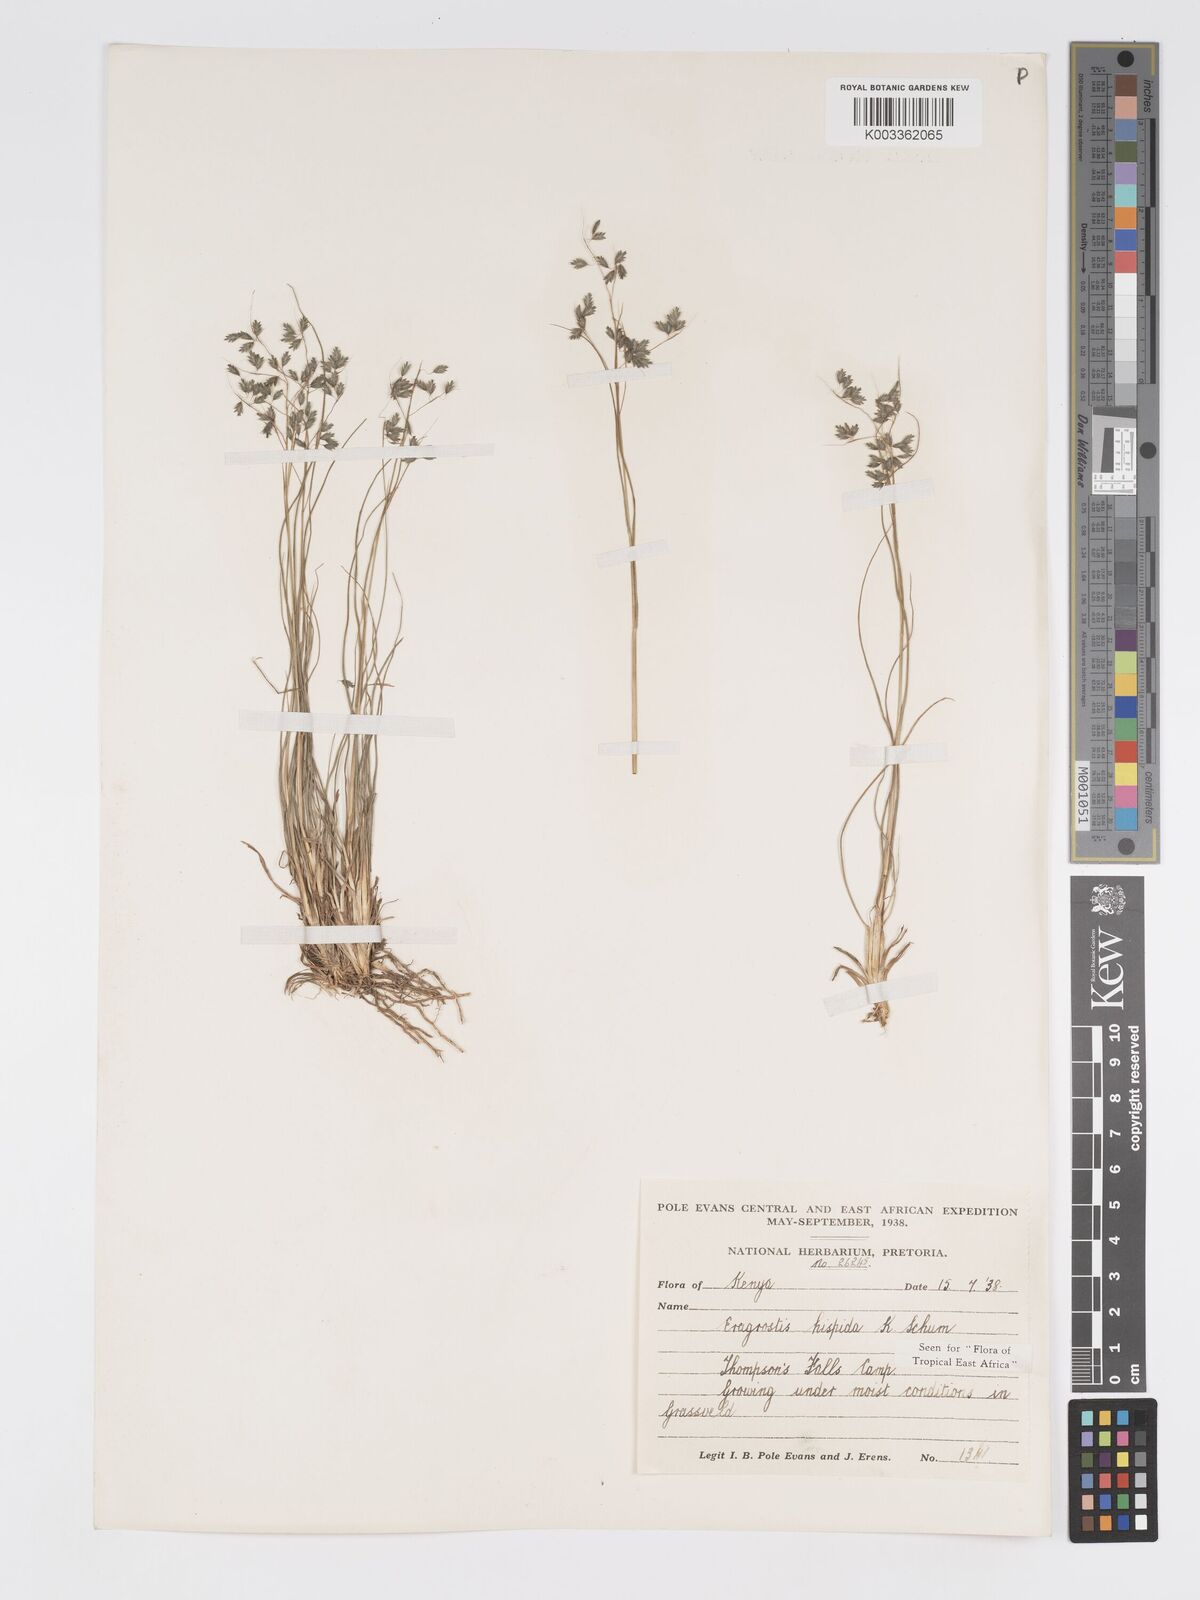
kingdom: Plantae
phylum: Tracheophyta
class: Liliopsida
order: Poales
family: Poaceae
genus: Eragrostis
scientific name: Eragrostis hispida
